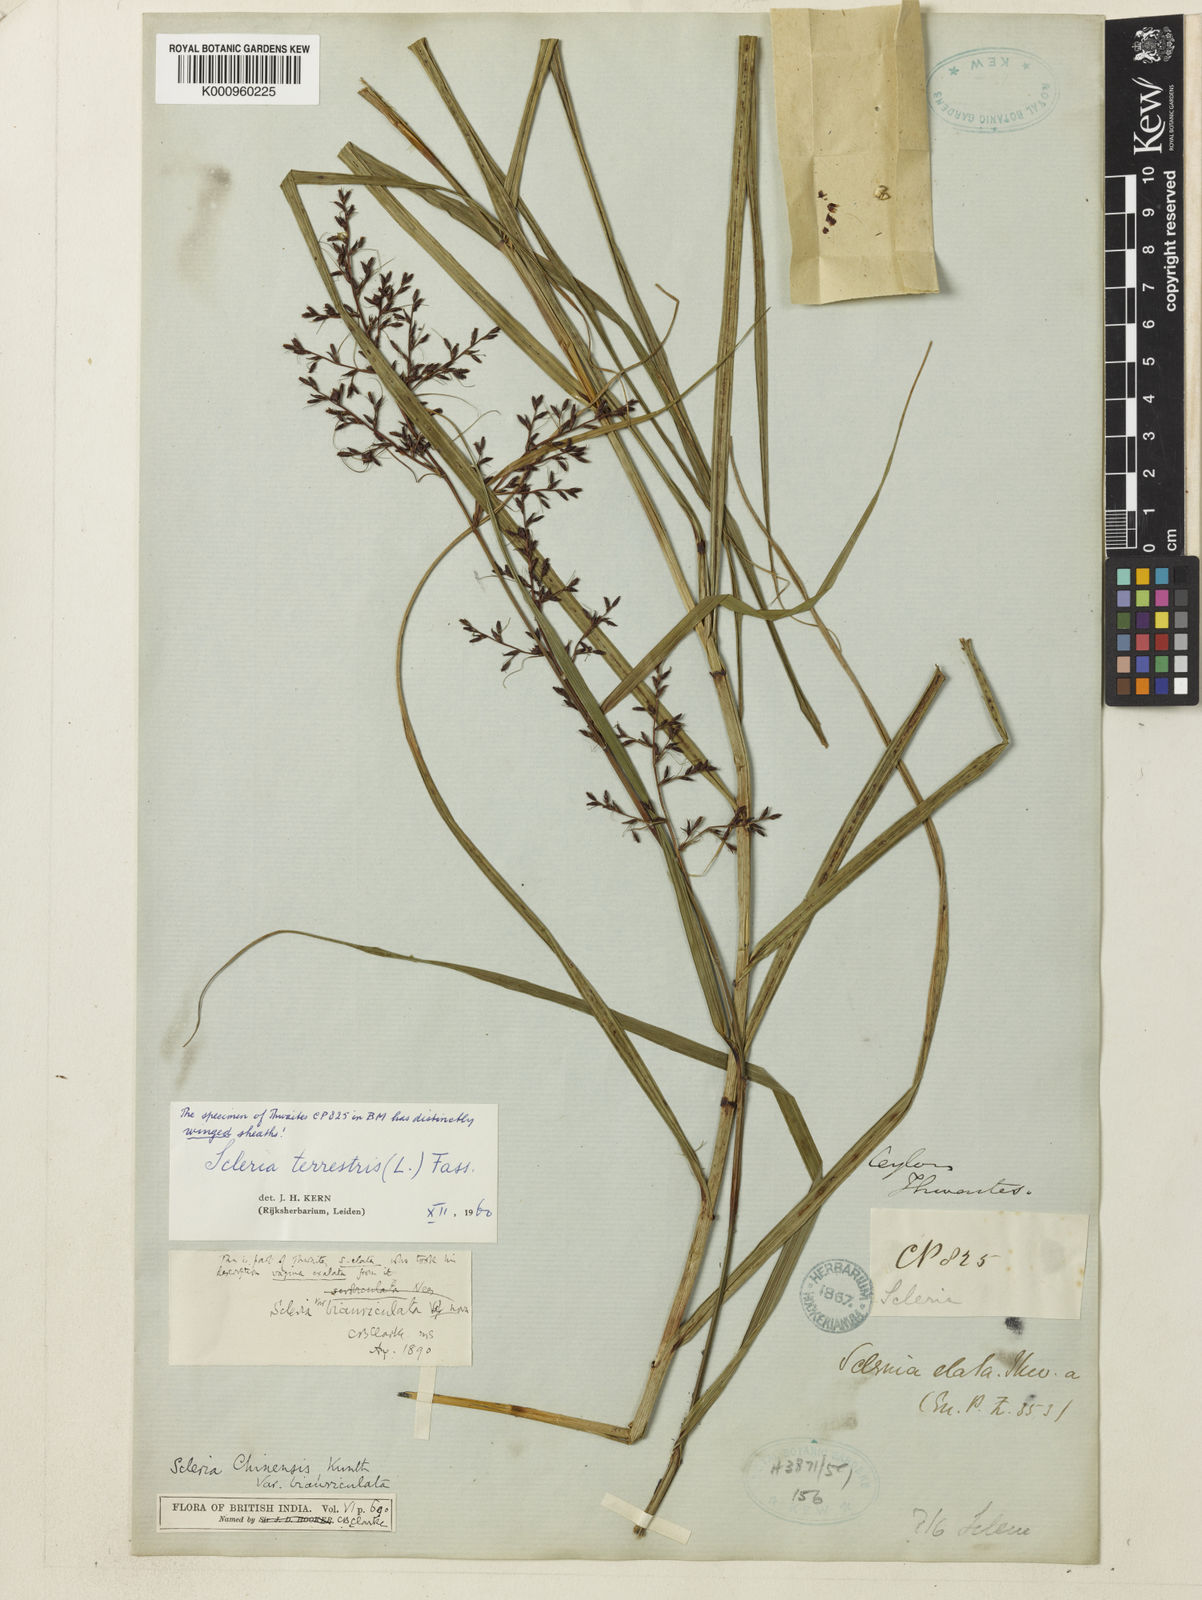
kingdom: Plantae
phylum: Tracheophyta
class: Liliopsida
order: Poales
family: Cyperaceae
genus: Scleria
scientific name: Scleria ciliaris
